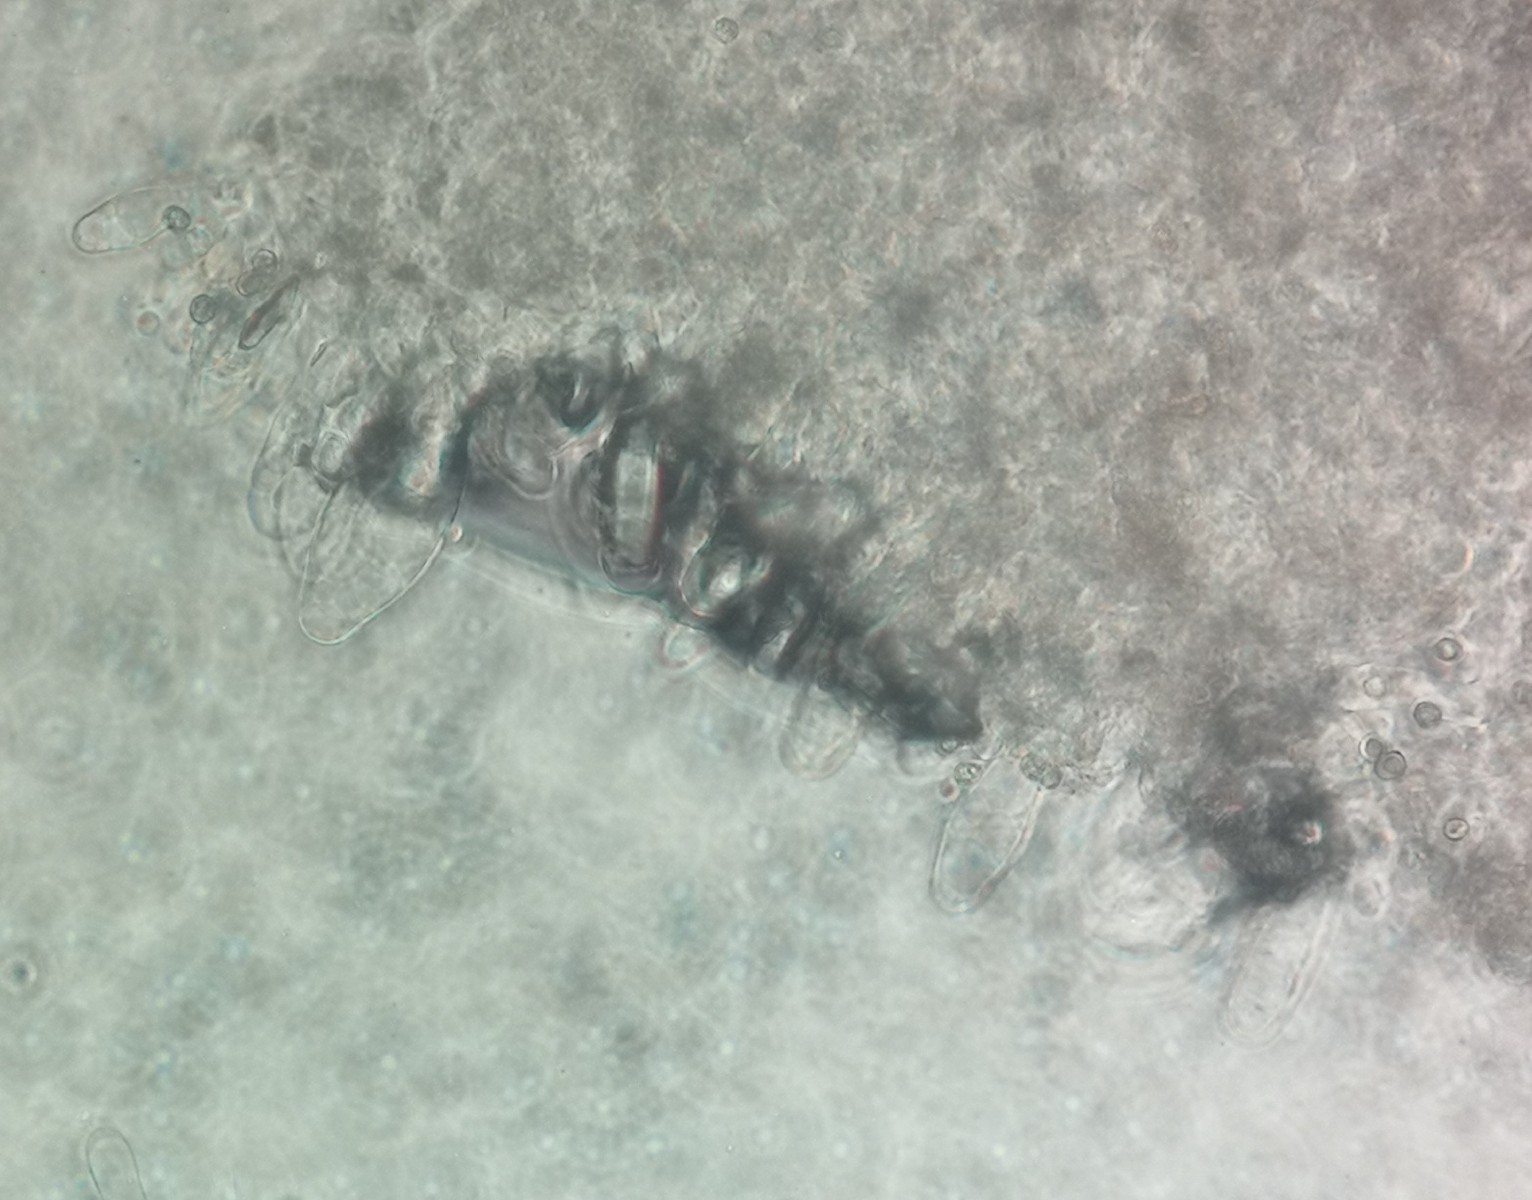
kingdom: Fungi
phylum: Basidiomycota
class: Agaricomycetes
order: Agaricales
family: Pluteaceae
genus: Pluteus
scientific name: Pluteus phlebophorus
